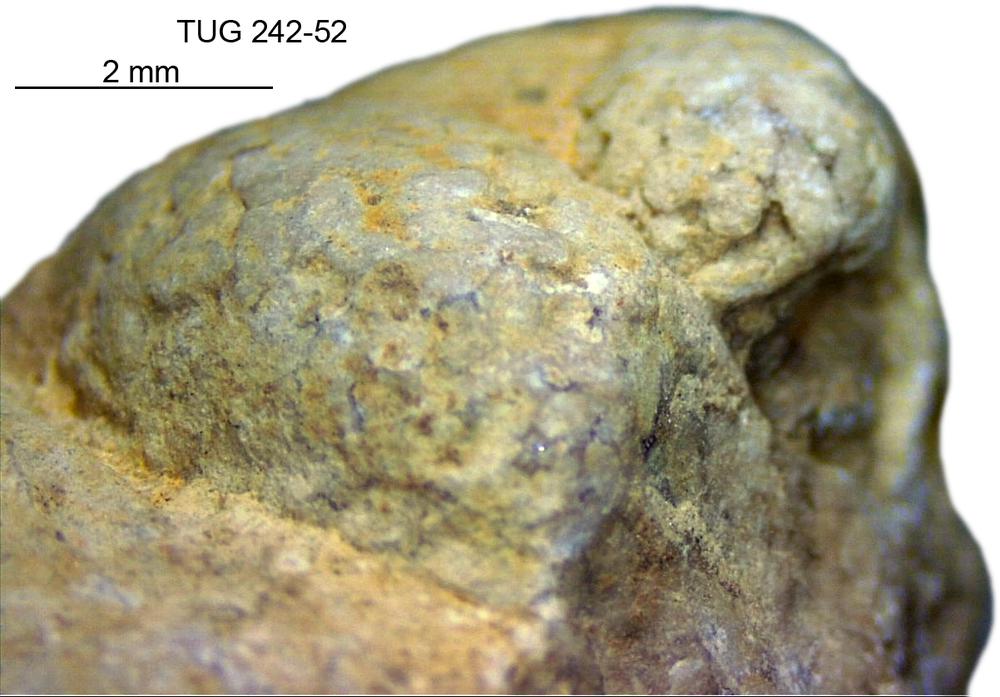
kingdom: Animalia
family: Coprulidae
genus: Coprulus
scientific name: Coprulus
